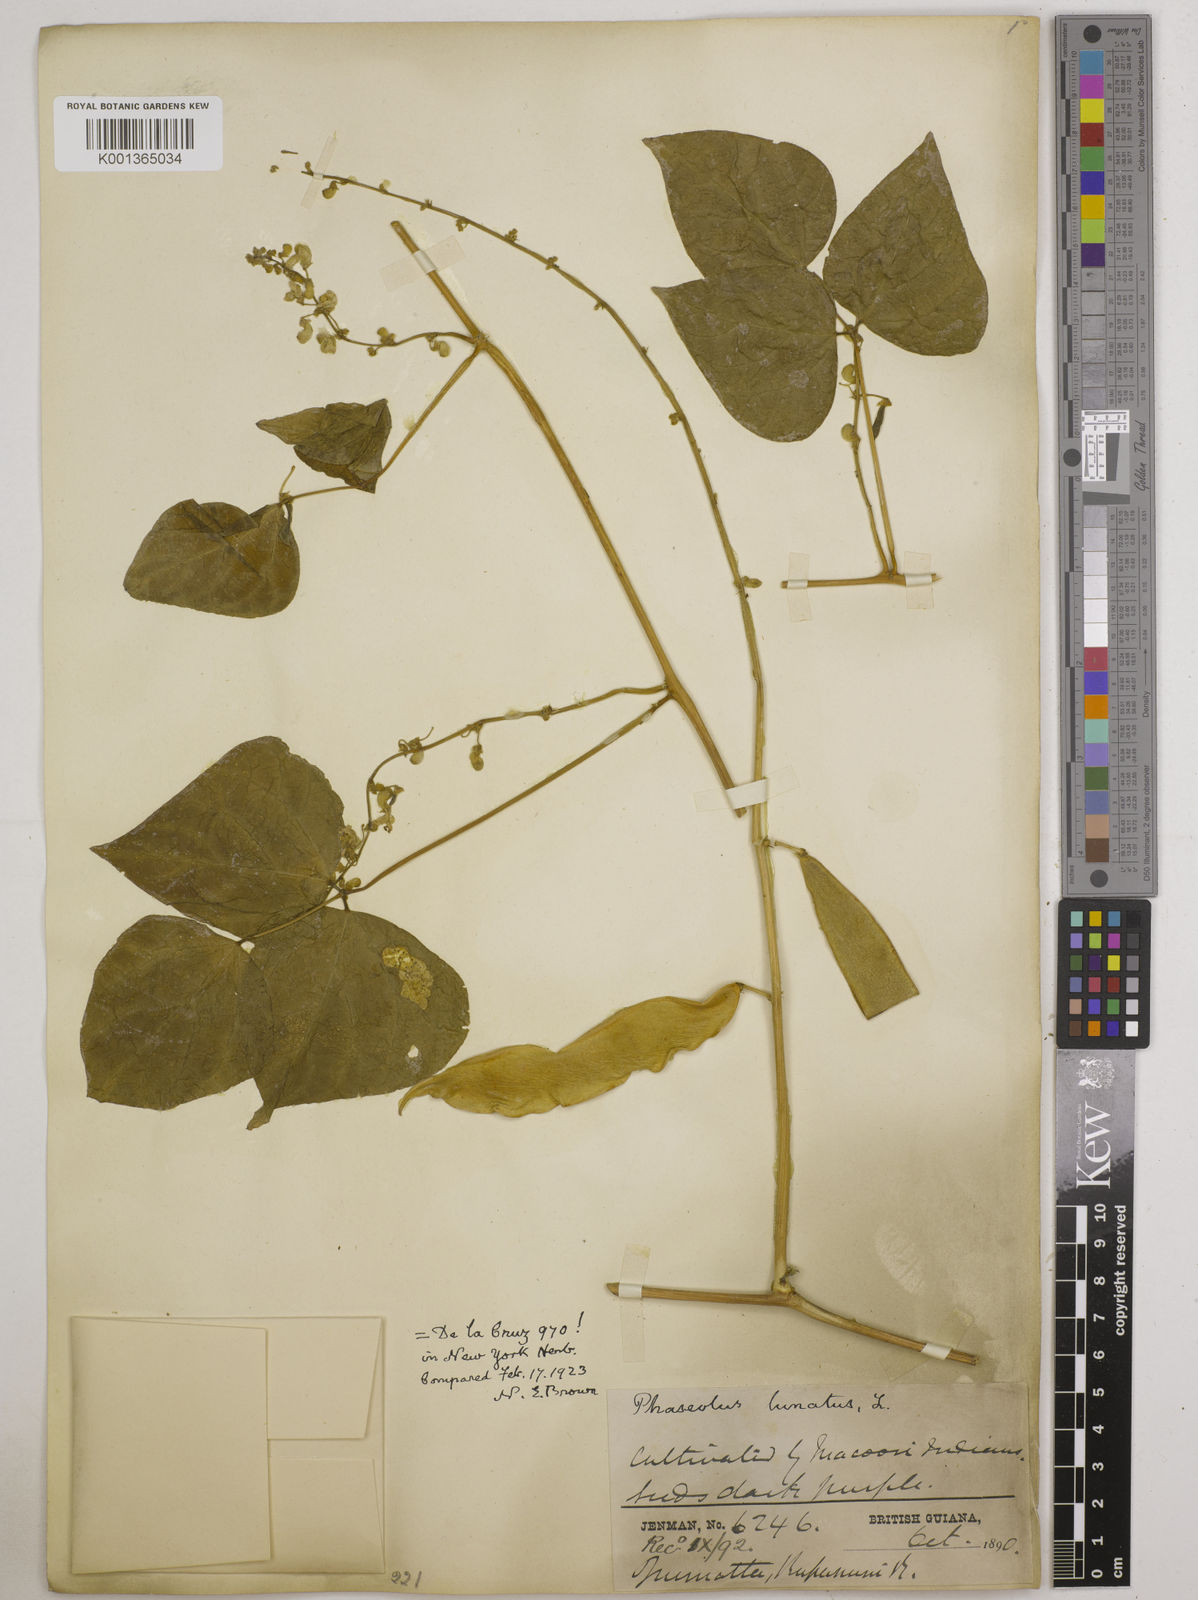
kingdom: Plantae
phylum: Tracheophyta
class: Magnoliopsida
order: Fabales
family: Fabaceae
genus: Phaseolus
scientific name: Phaseolus lunatus
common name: Sieva bean
